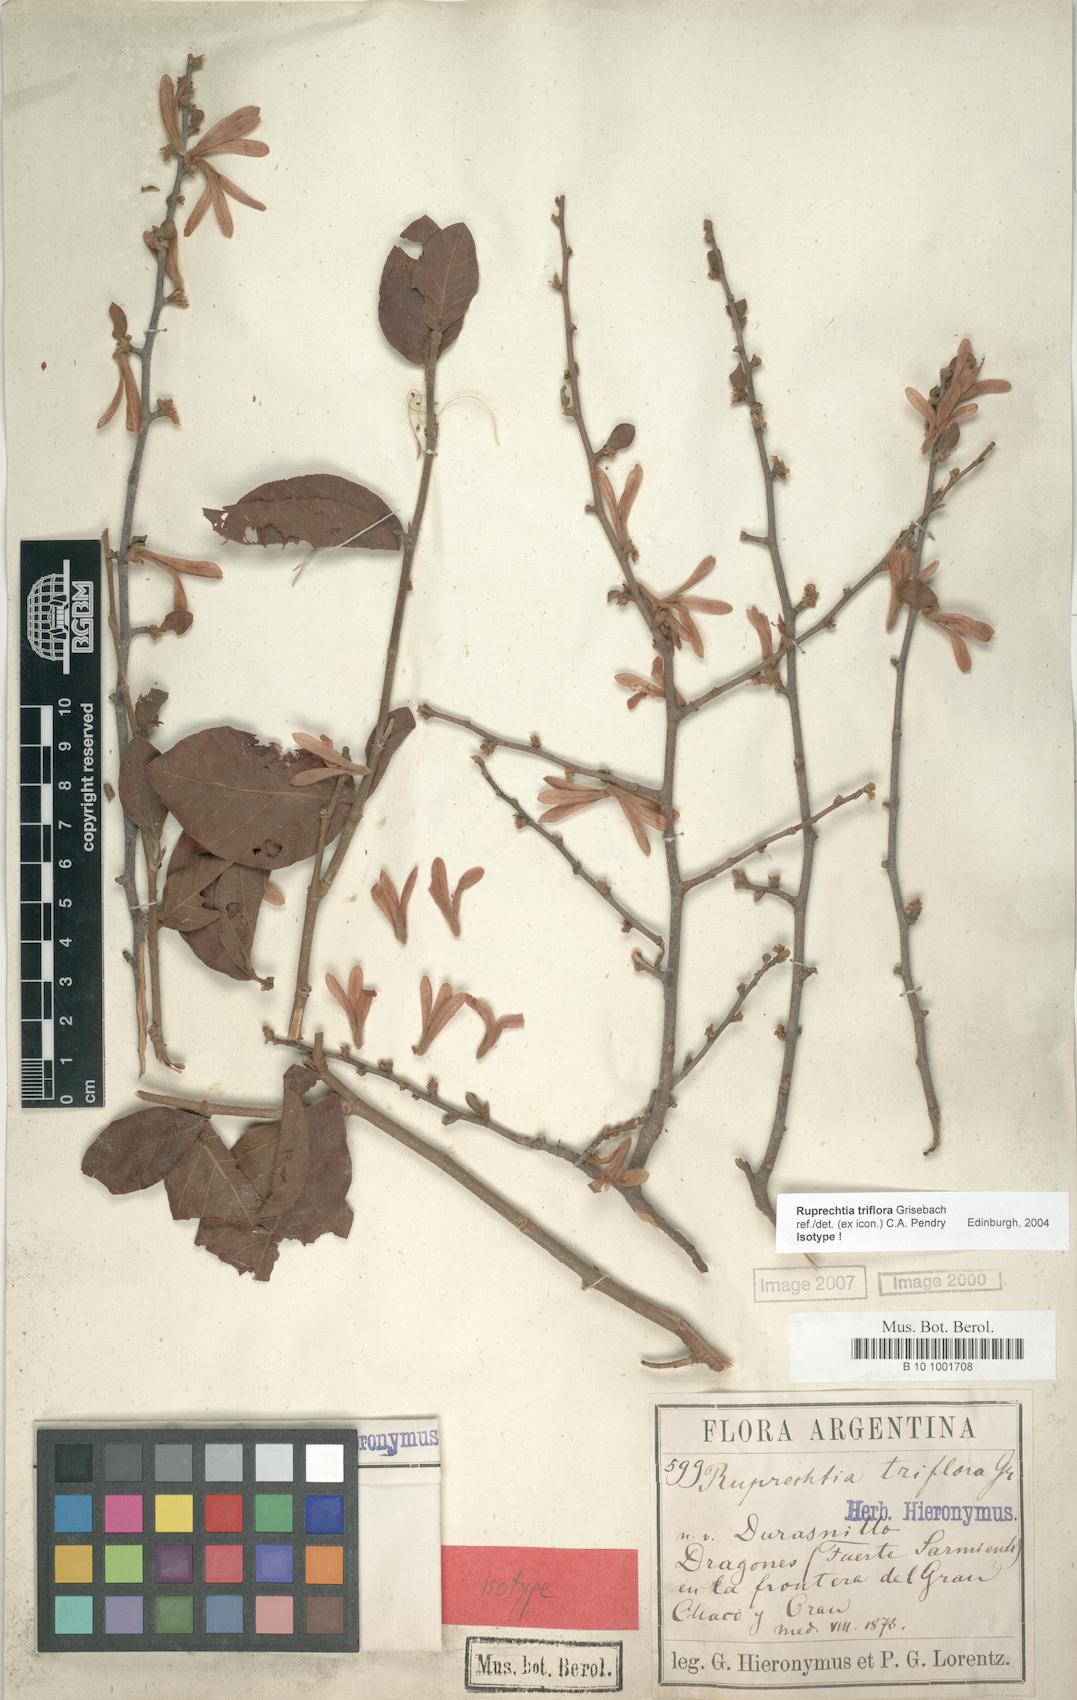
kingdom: Plantae
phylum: Tracheophyta
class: Magnoliopsida
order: Caryophyllales
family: Polygonaceae
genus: Salta
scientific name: Salta triflora
